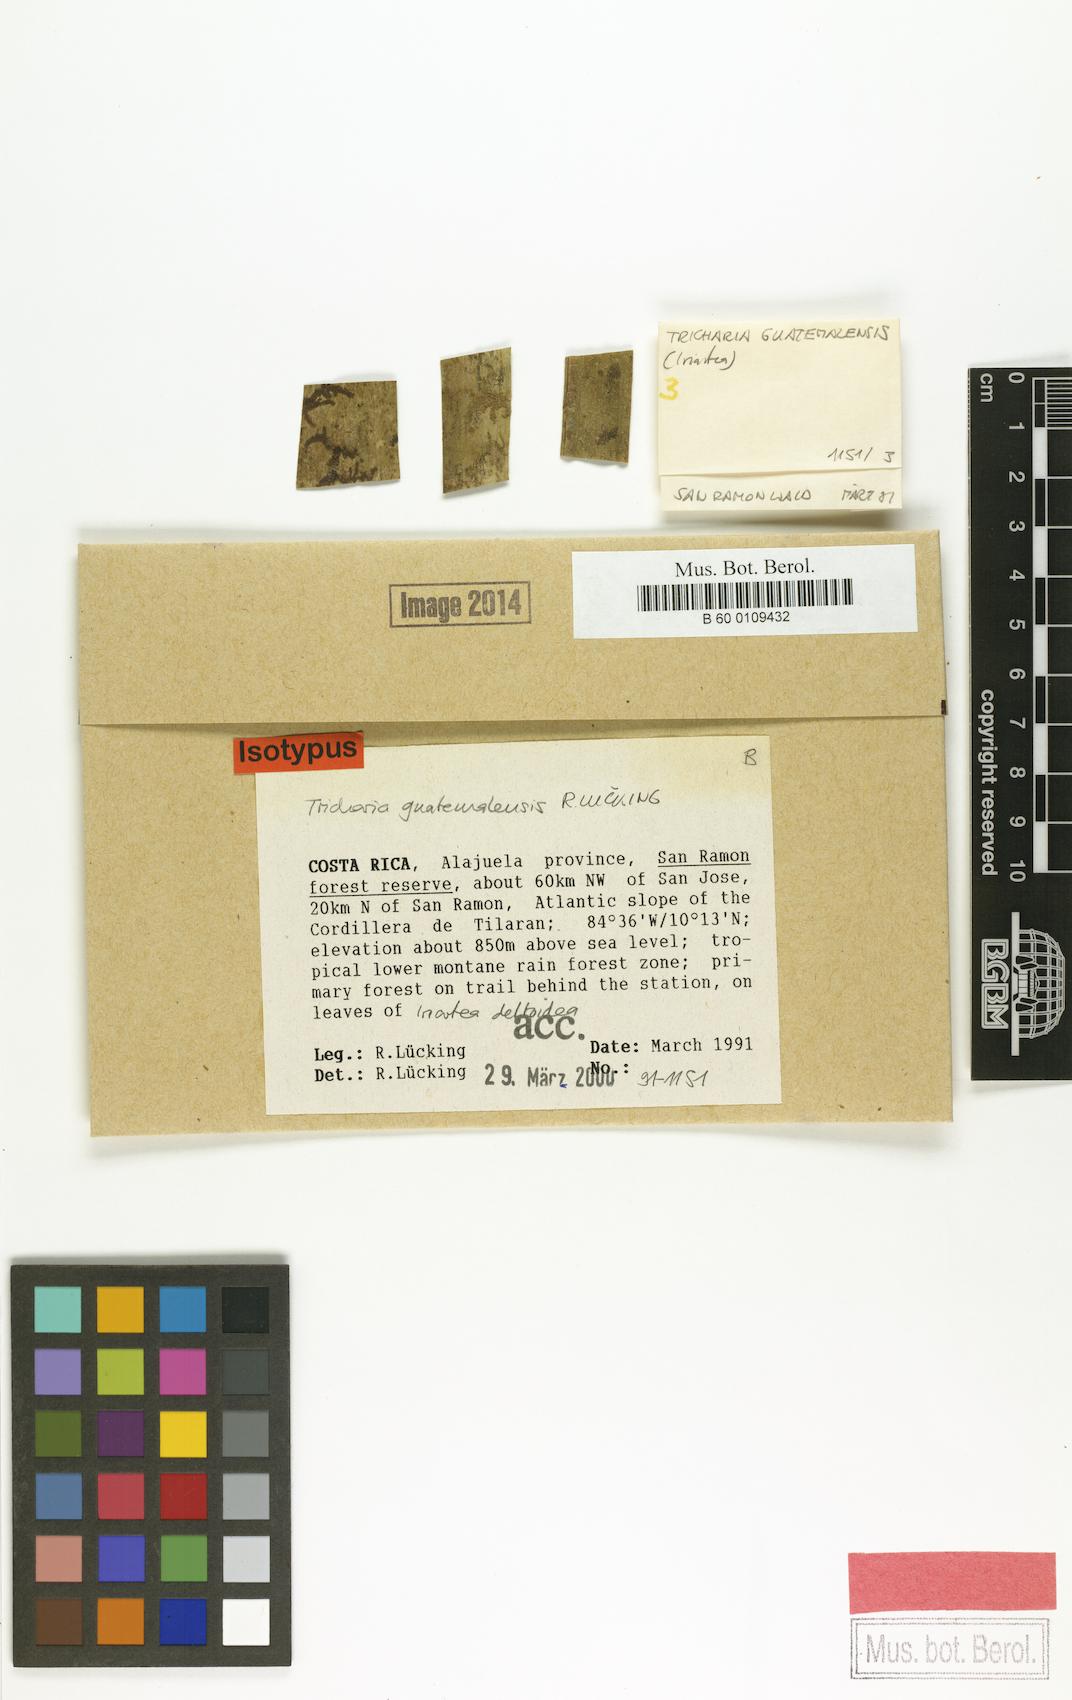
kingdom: Fungi
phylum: Ascomycota
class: Lecanoromycetes
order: Ostropales
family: Gomphillaceae
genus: Aderkomyces
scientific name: Aderkomyces guatemalensis
